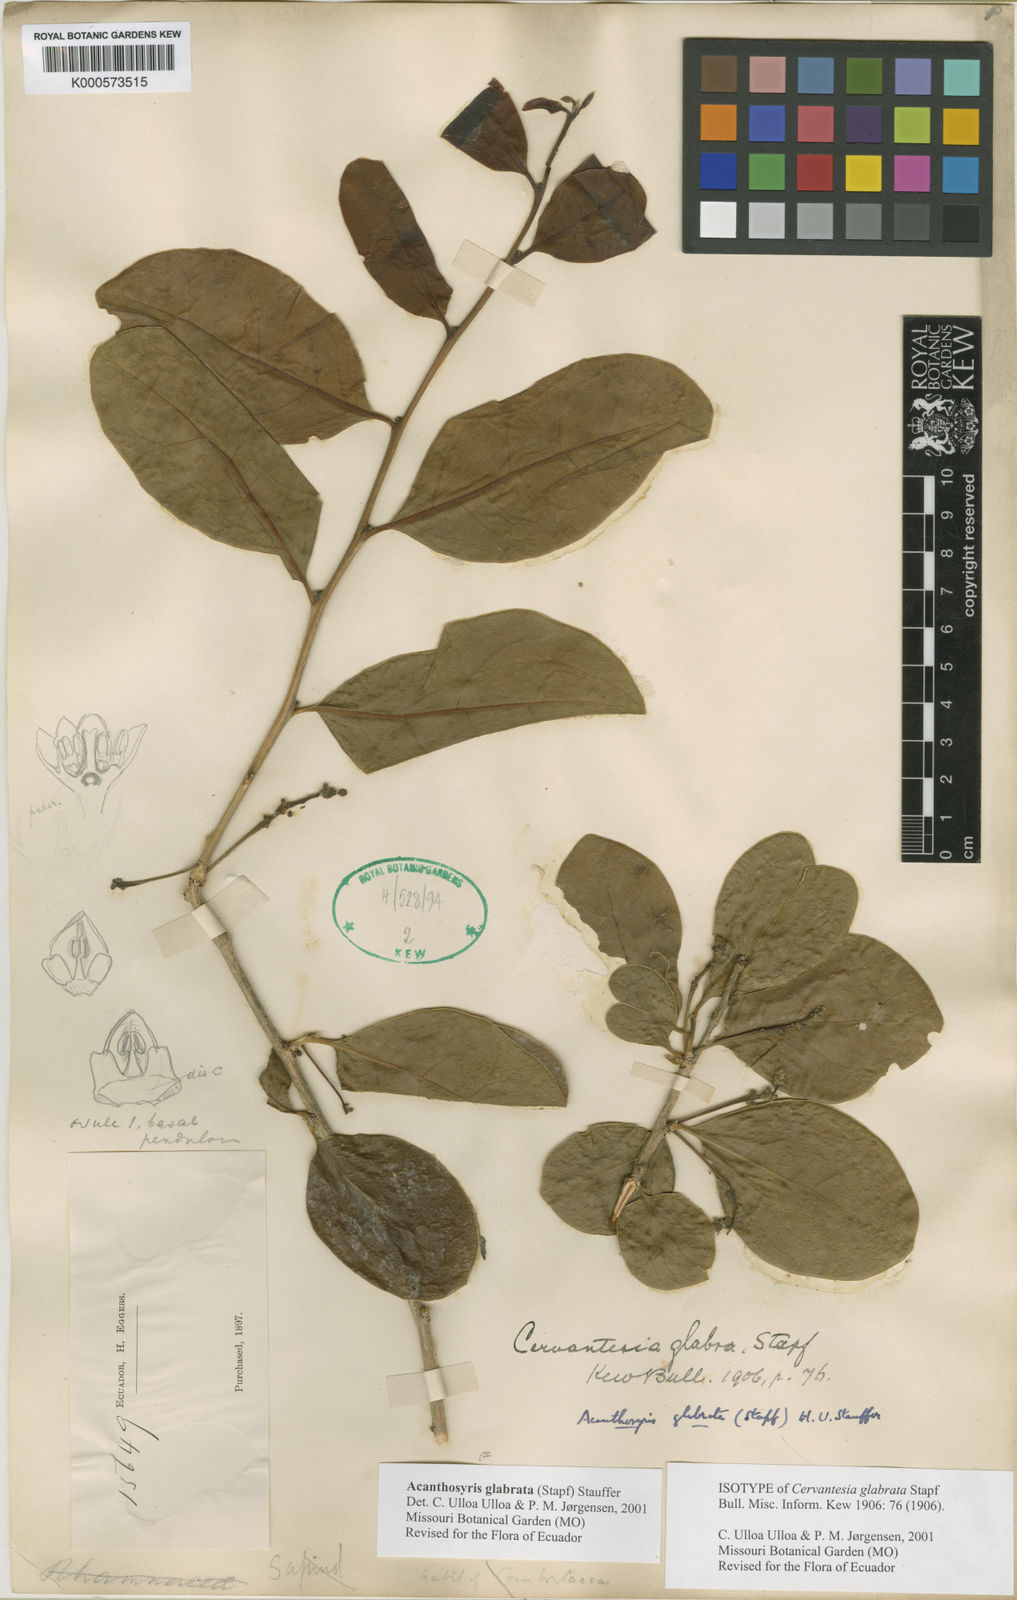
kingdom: Plantae
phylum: Tracheophyta
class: Magnoliopsida
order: Santalales
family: Cervantesiaceae
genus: Acanthosyris
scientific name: Acanthosyris
